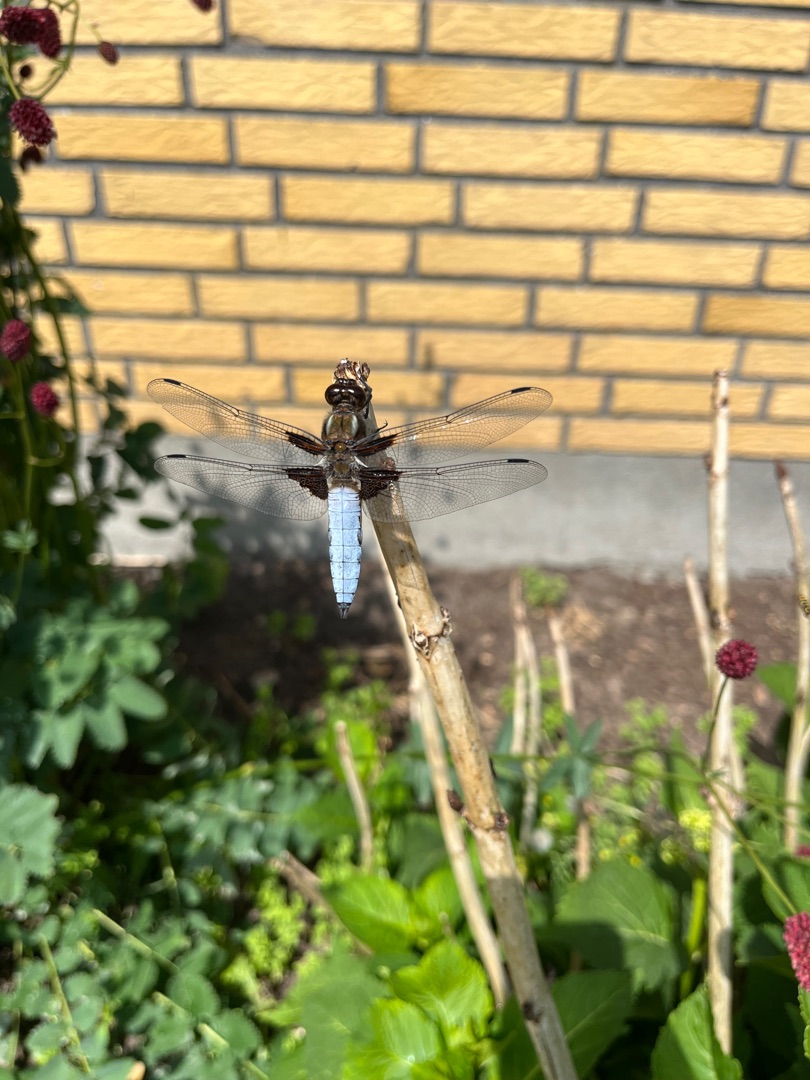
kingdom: Animalia
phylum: Arthropoda
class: Insecta
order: Odonata
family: Libellulidae
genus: Libellula
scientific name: Libellula depressa
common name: Blå libel
